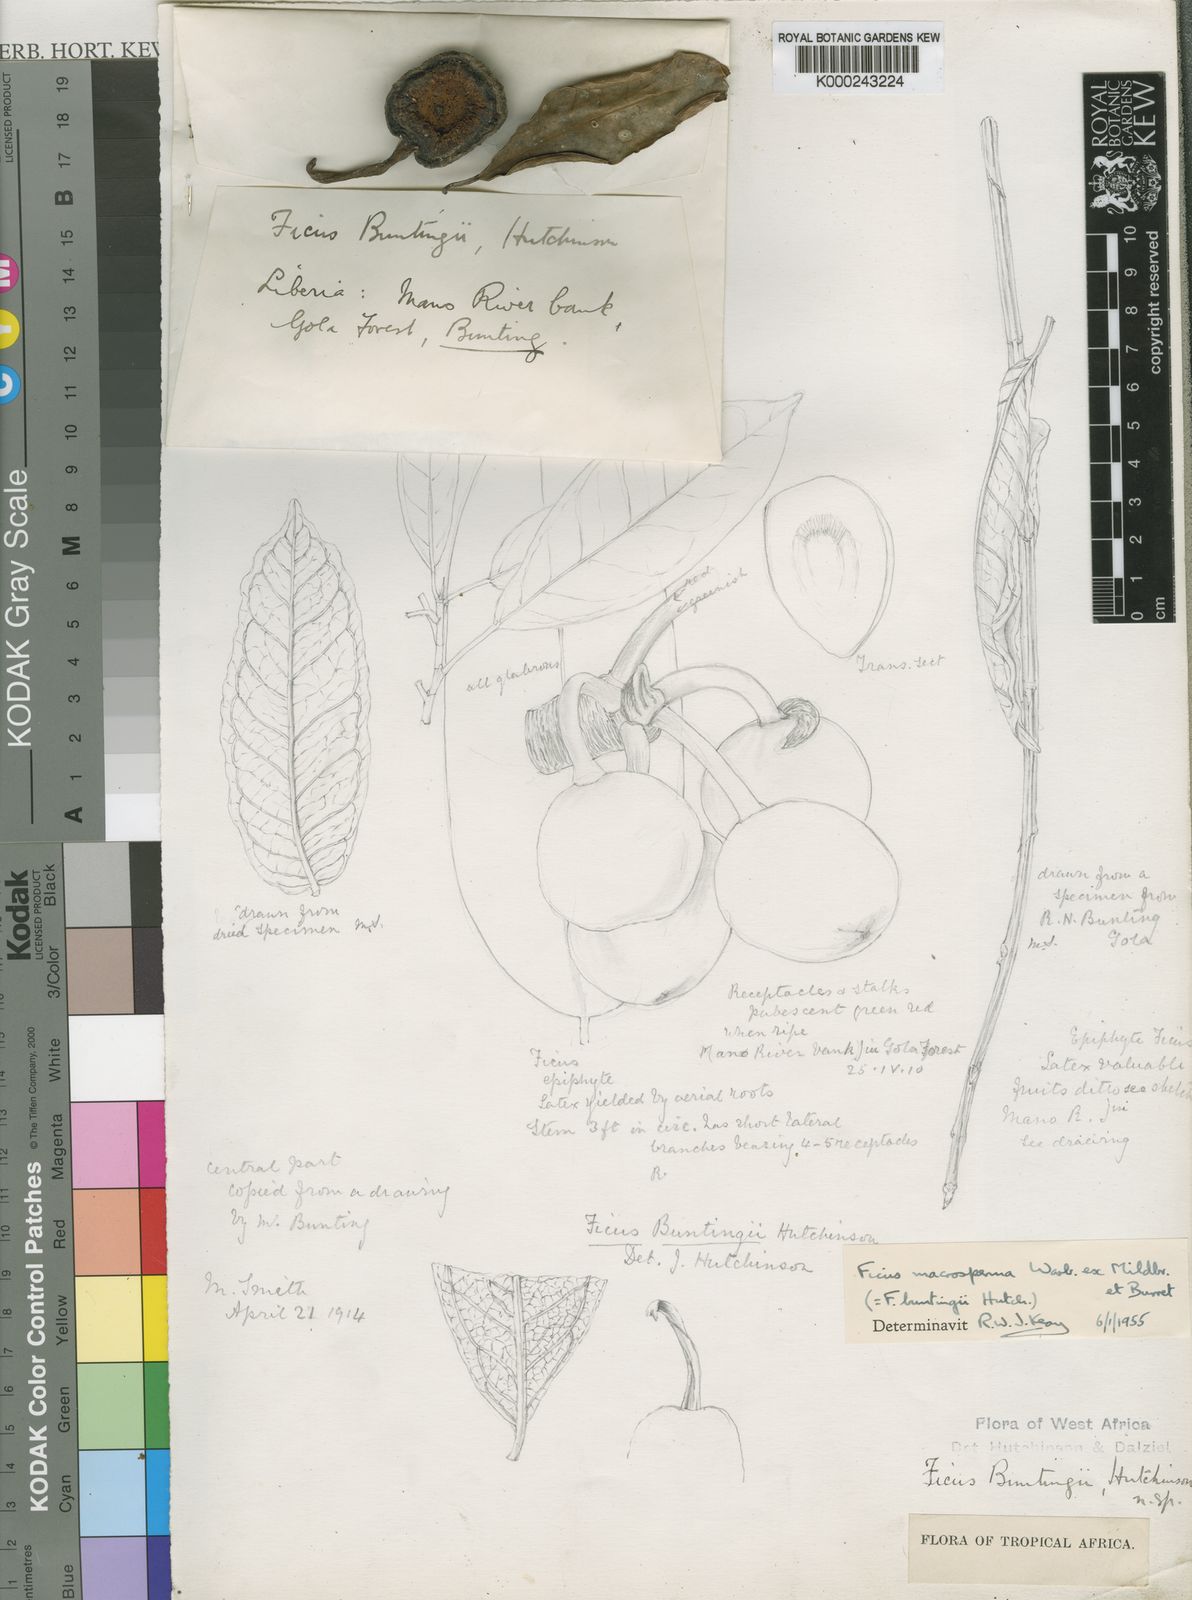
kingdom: Plantae
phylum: Tracheophyta
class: Magnoliopsida
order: Rosales
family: Moraceae
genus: Ficus
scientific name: Ficus sansibarica
